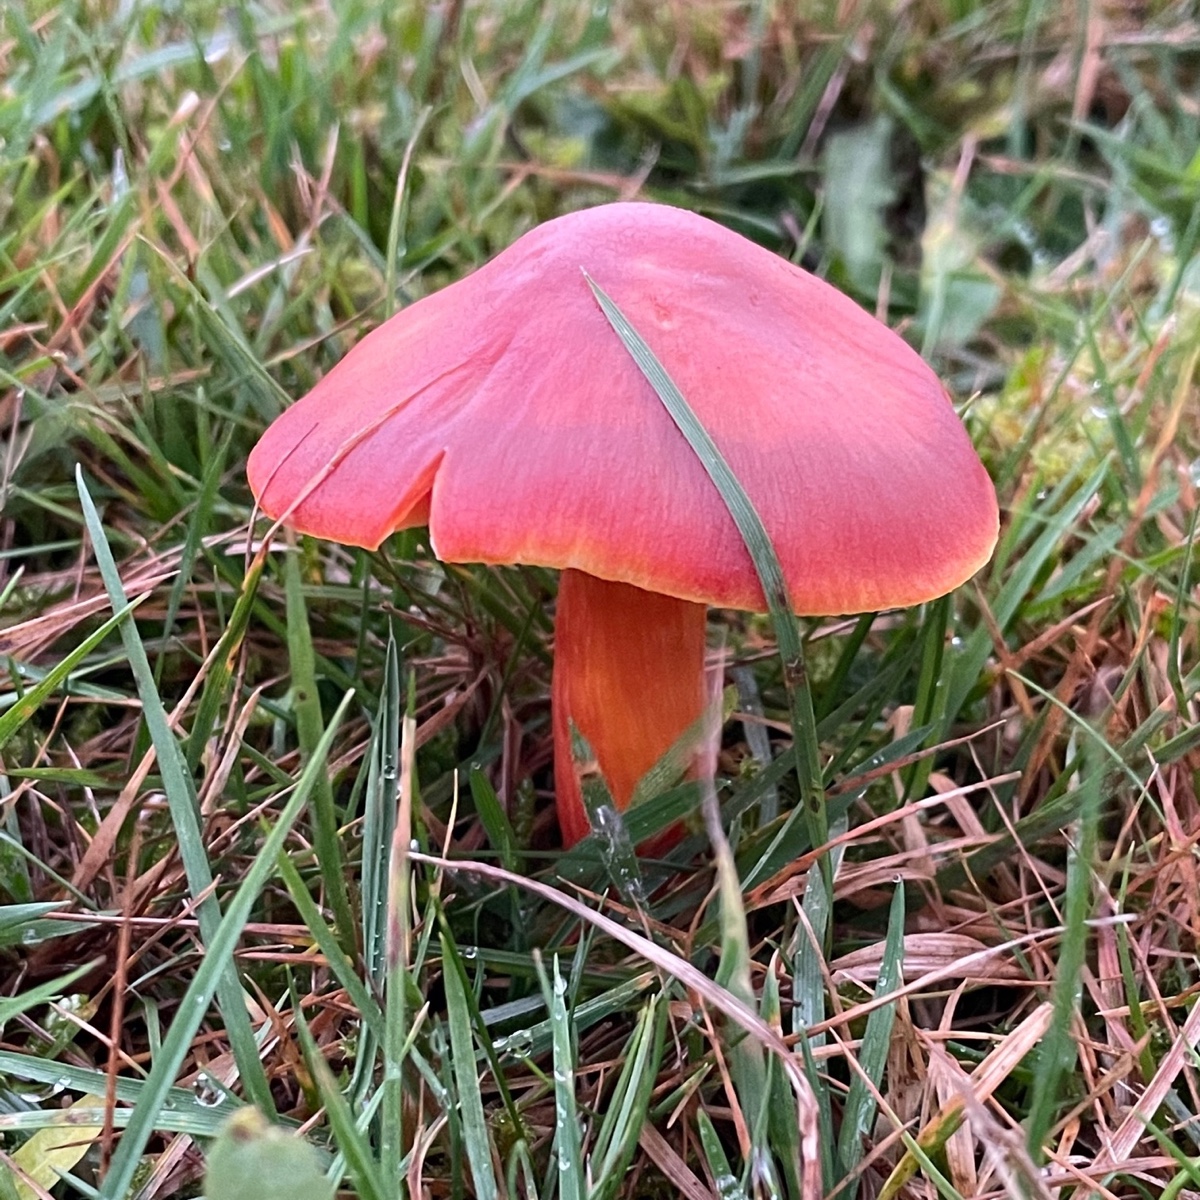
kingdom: Fungi
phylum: Basidiomycota
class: Agaricomycetes
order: Agaricales
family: Hygrophoraceae
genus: Hygrocybe
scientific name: Hygrocybe punicea
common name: skarlagen-vokshat
